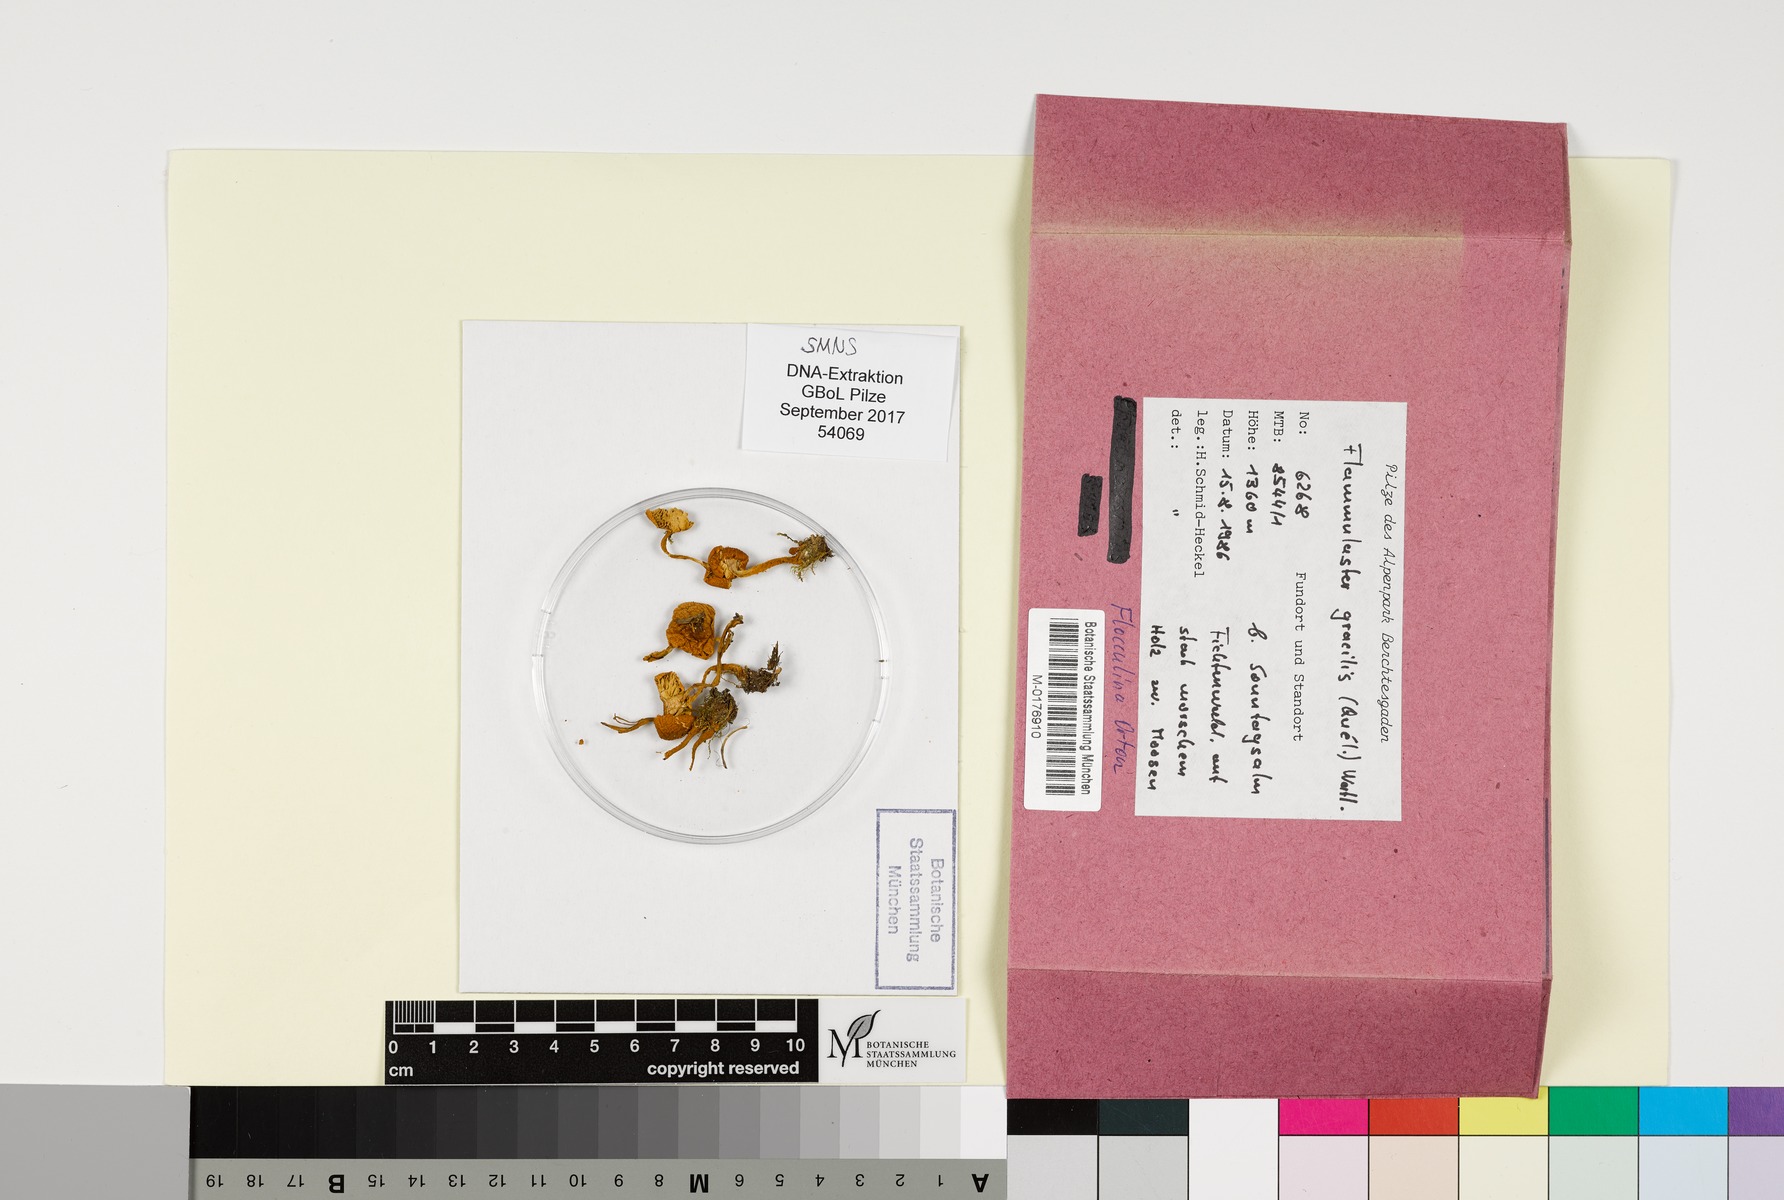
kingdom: Fungi
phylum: Basidiomycota
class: Agaricomycetes
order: Agaricales
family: Tricholomataceae
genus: Cystoderma
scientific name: Cystoderma jasonis
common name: Pine powdercap
